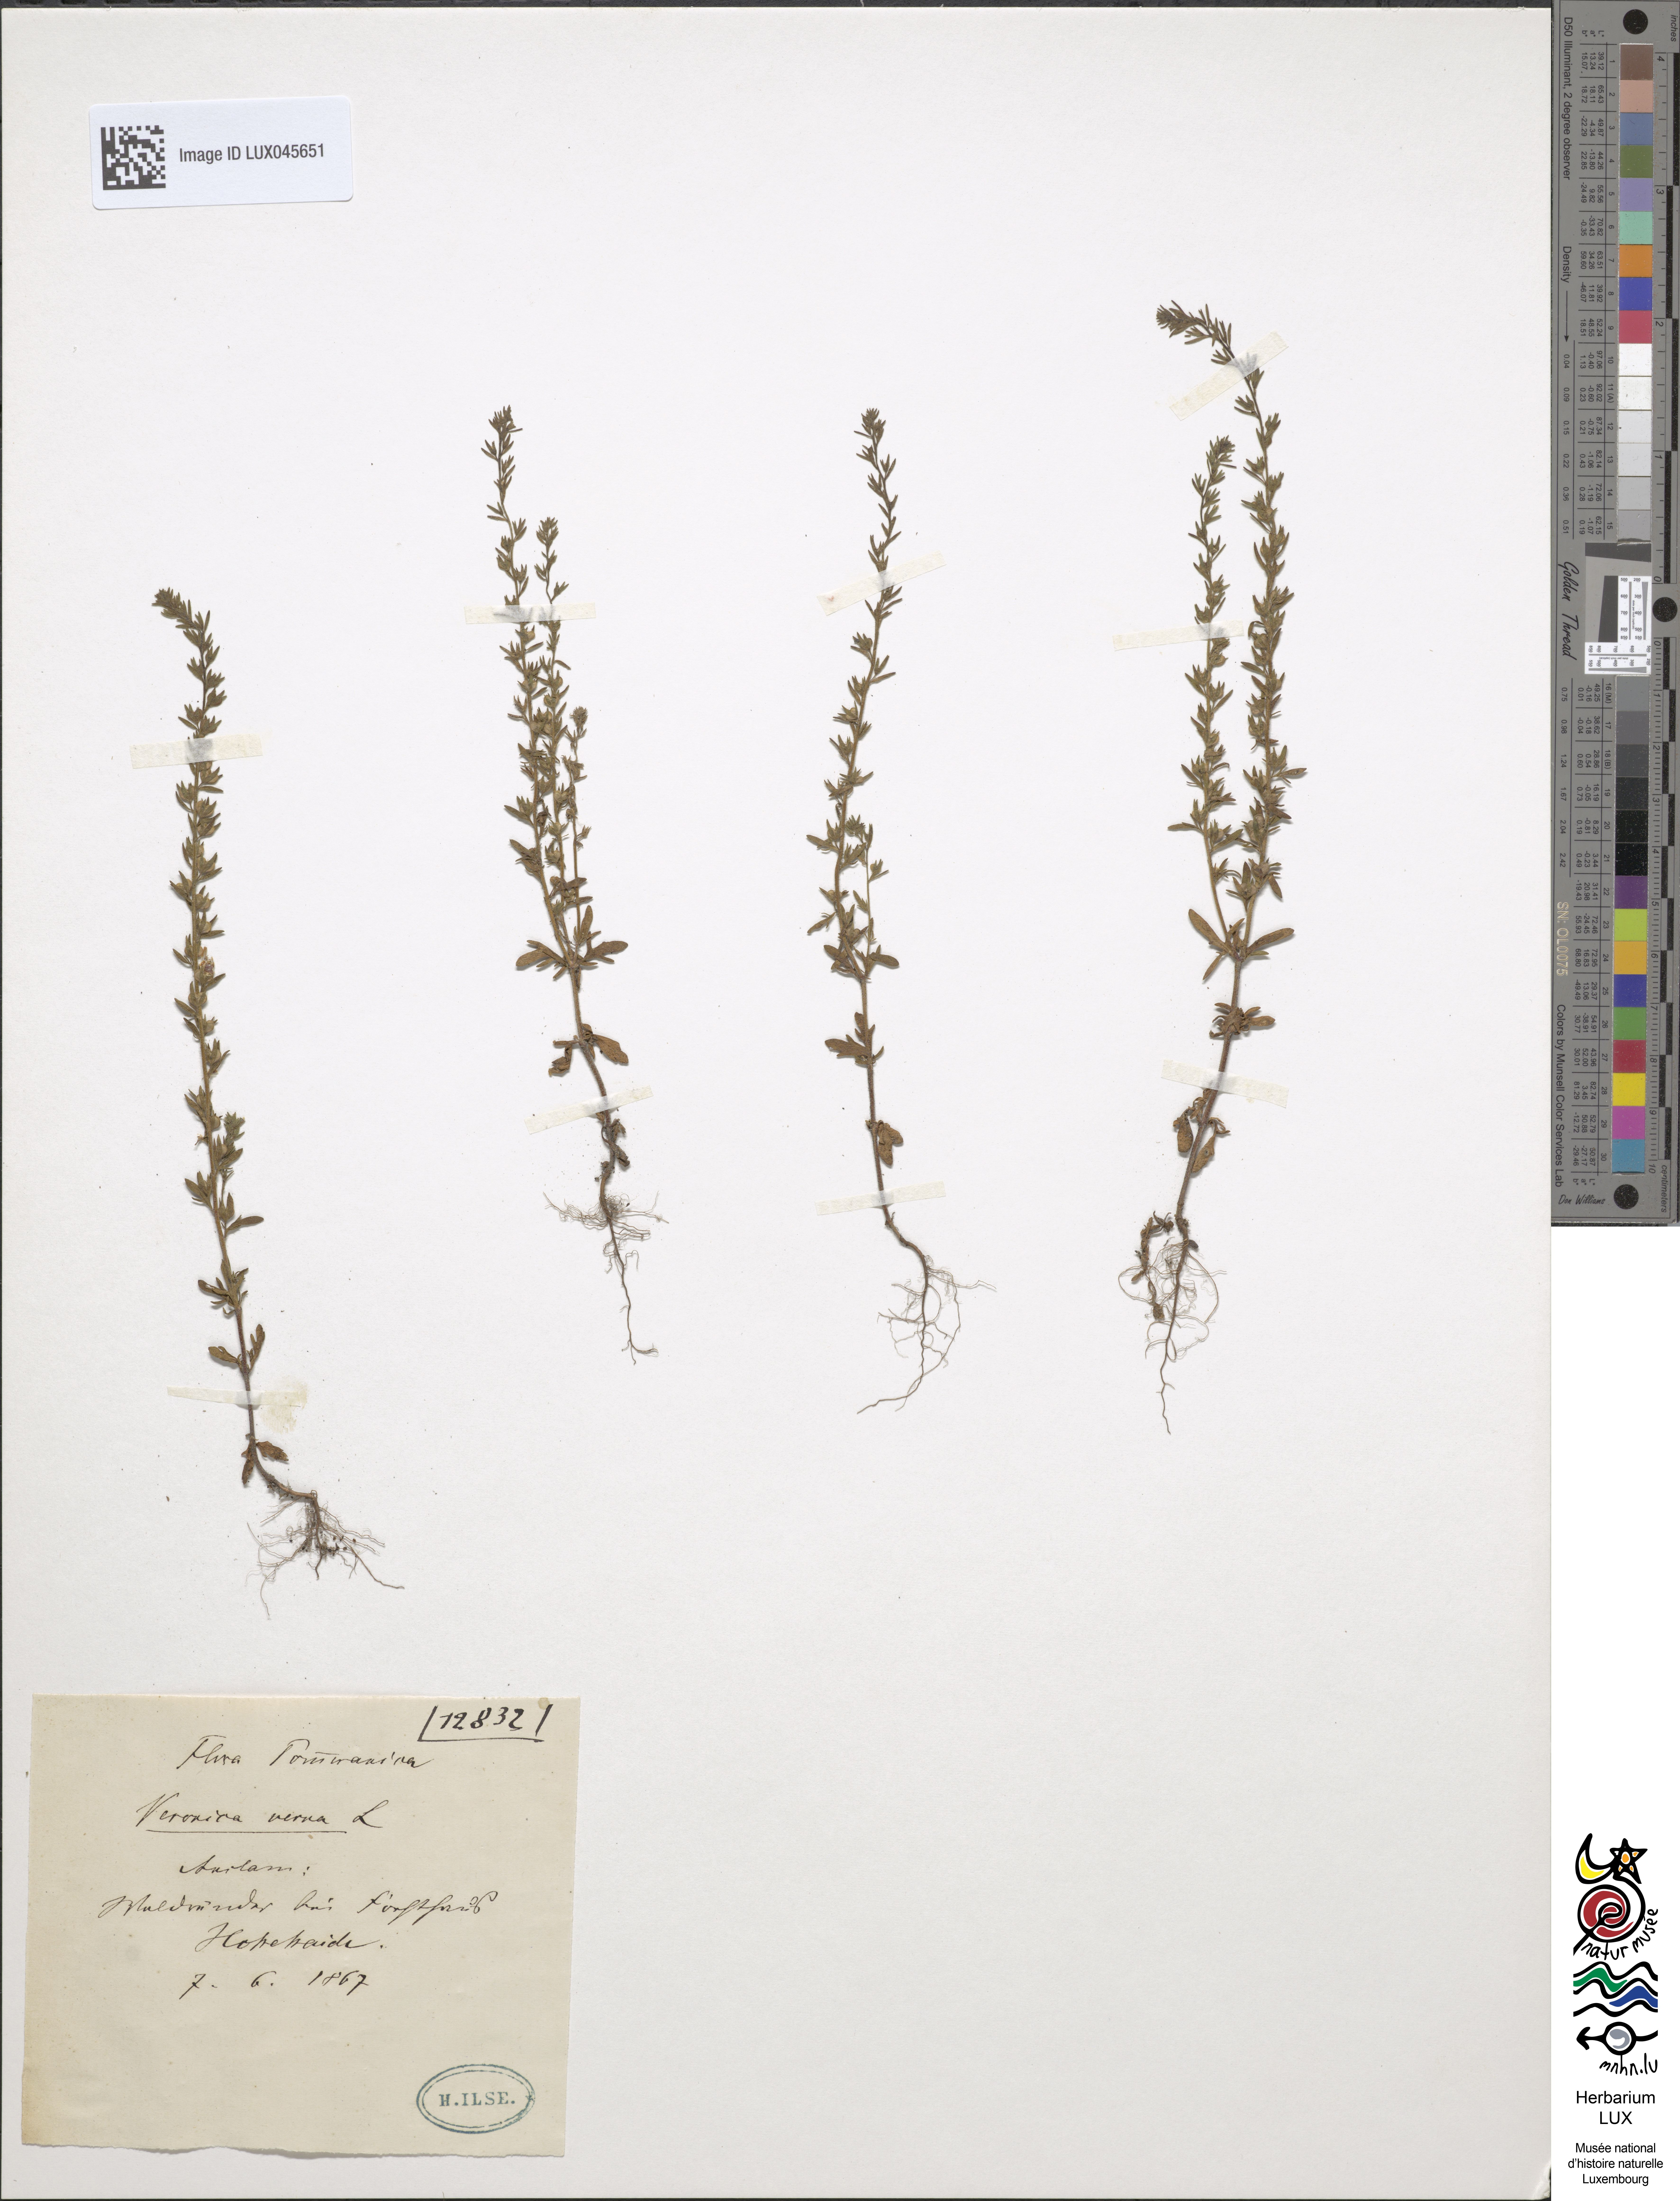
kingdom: Plantae
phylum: Tracheophyta
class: Magnoliopsida
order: Lamiales
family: Plantaginaceae
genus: Veronica
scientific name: Veronica verna
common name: Spring speedwell
